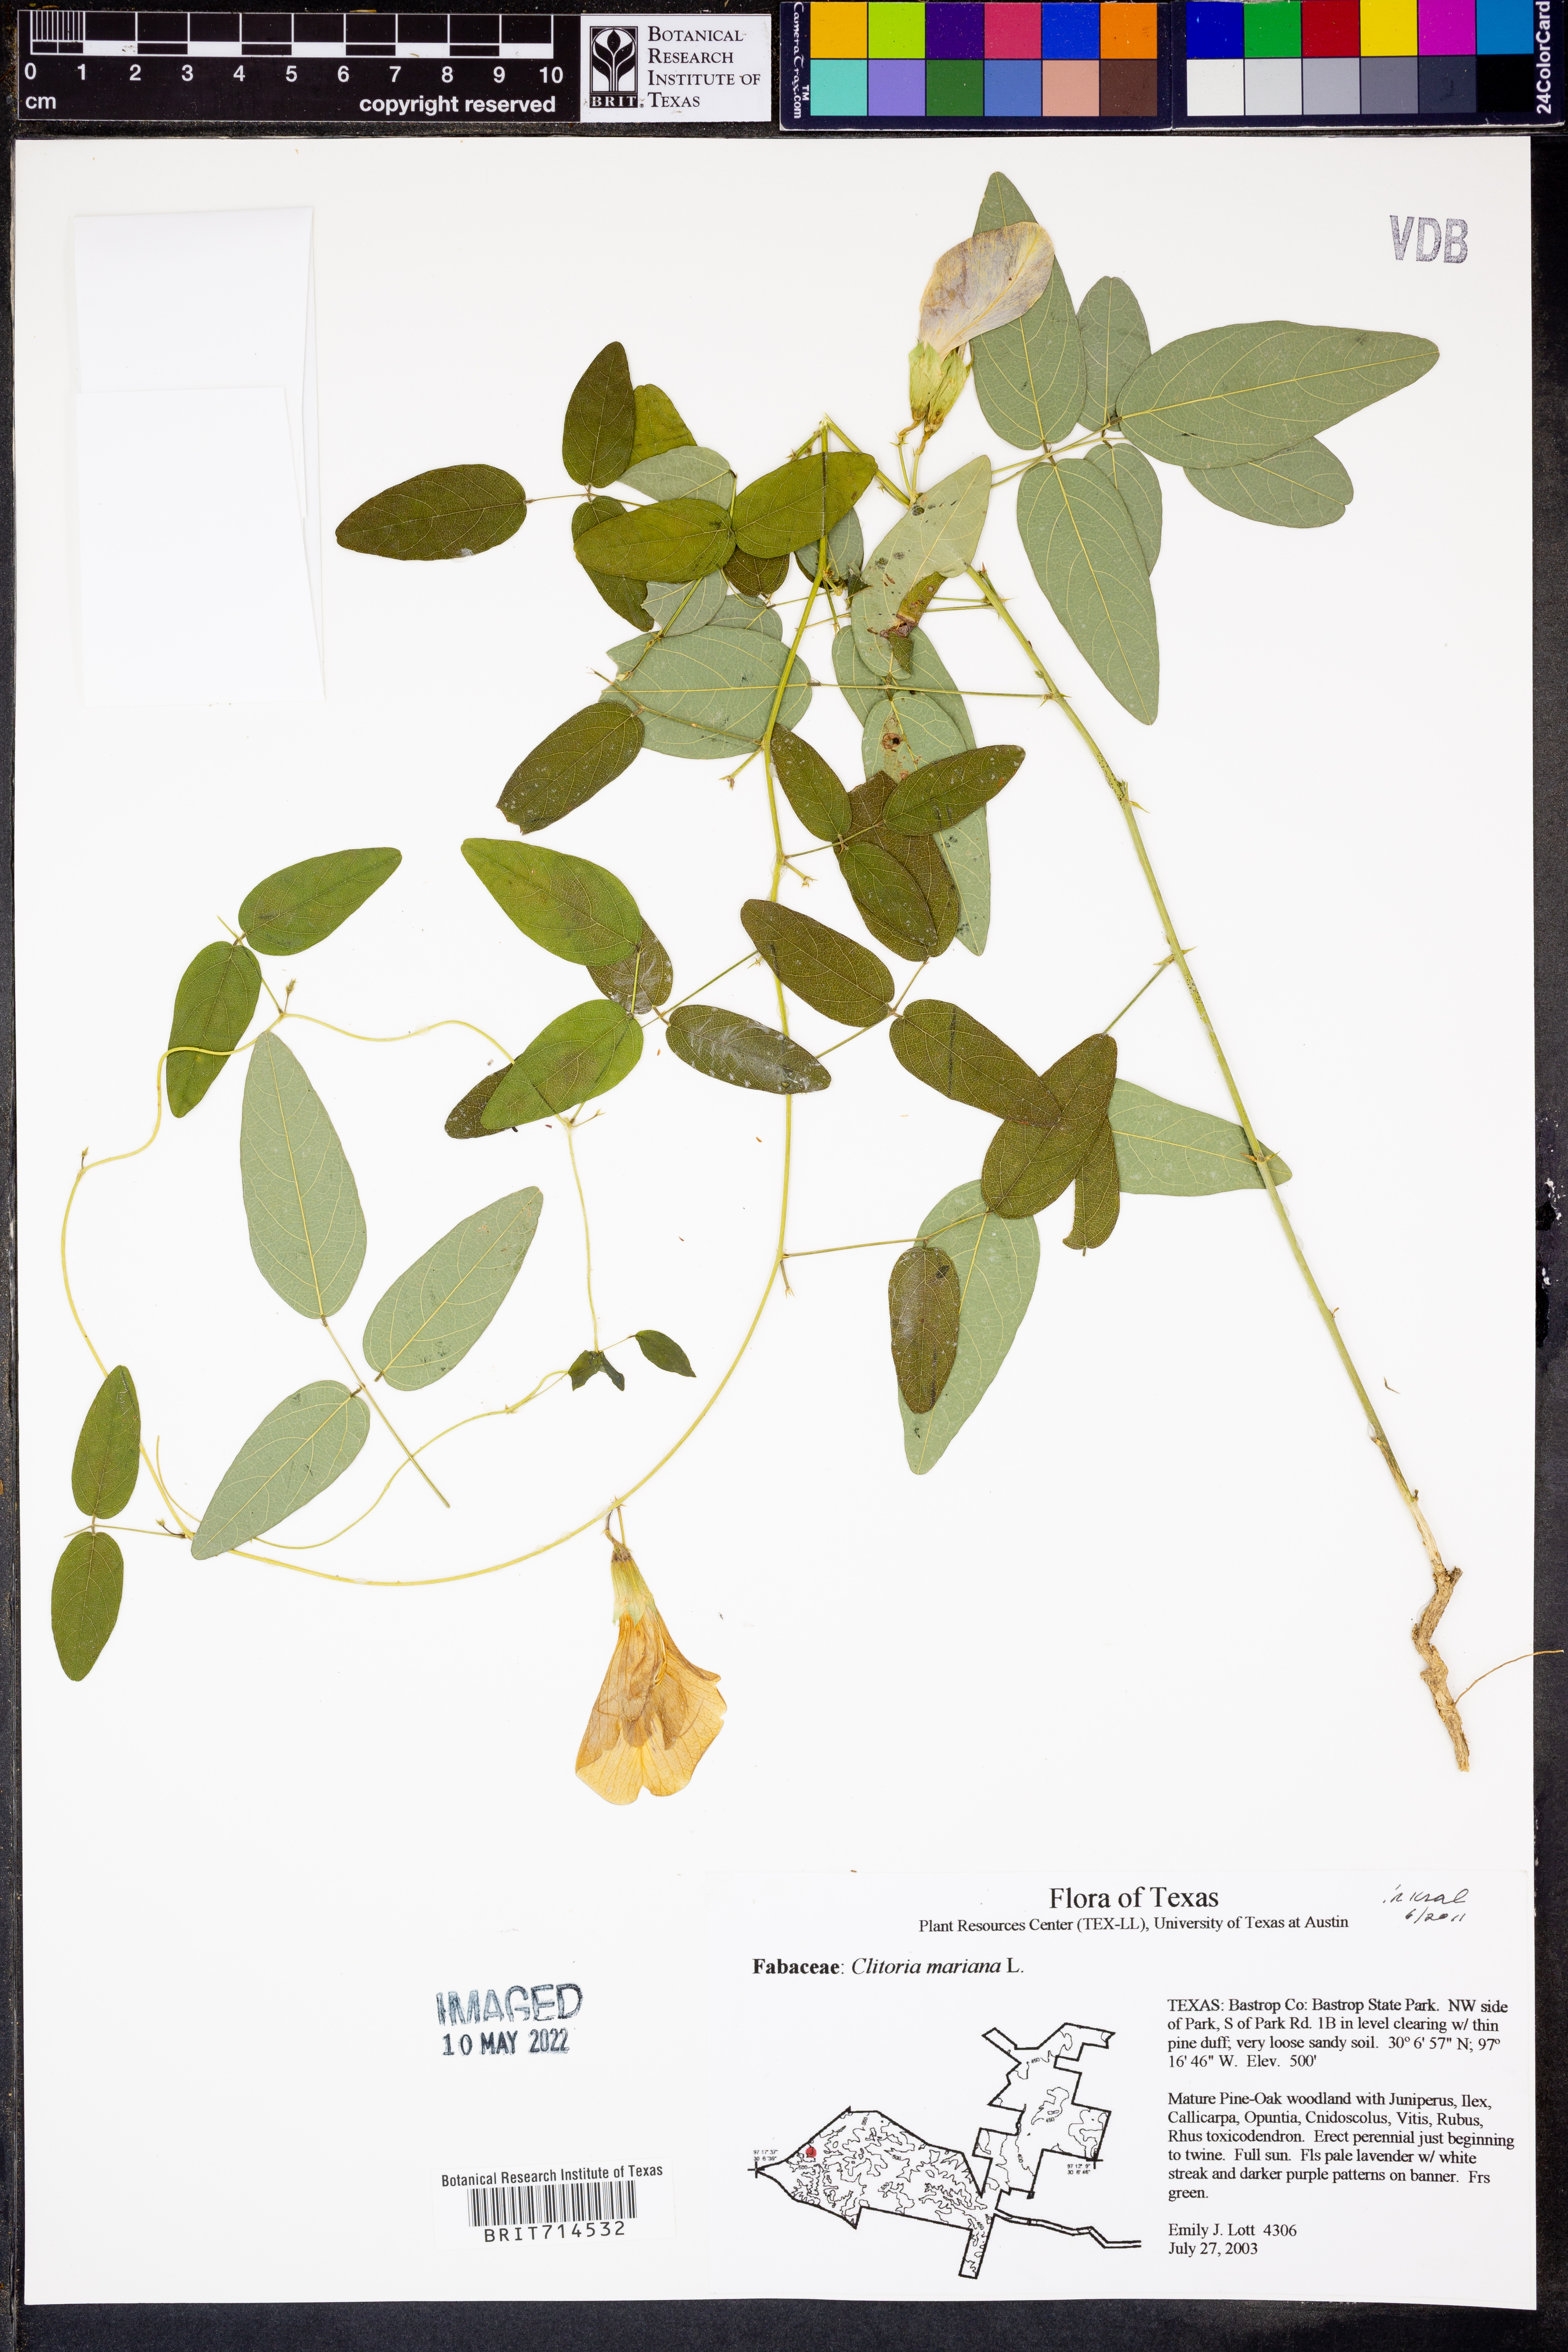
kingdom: Plantae
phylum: Tracheophyta
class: Magnoliopsida
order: Fabales
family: Fabaceae
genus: Clitoria
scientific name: Clitoria mariana
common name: Butterfly-pea
